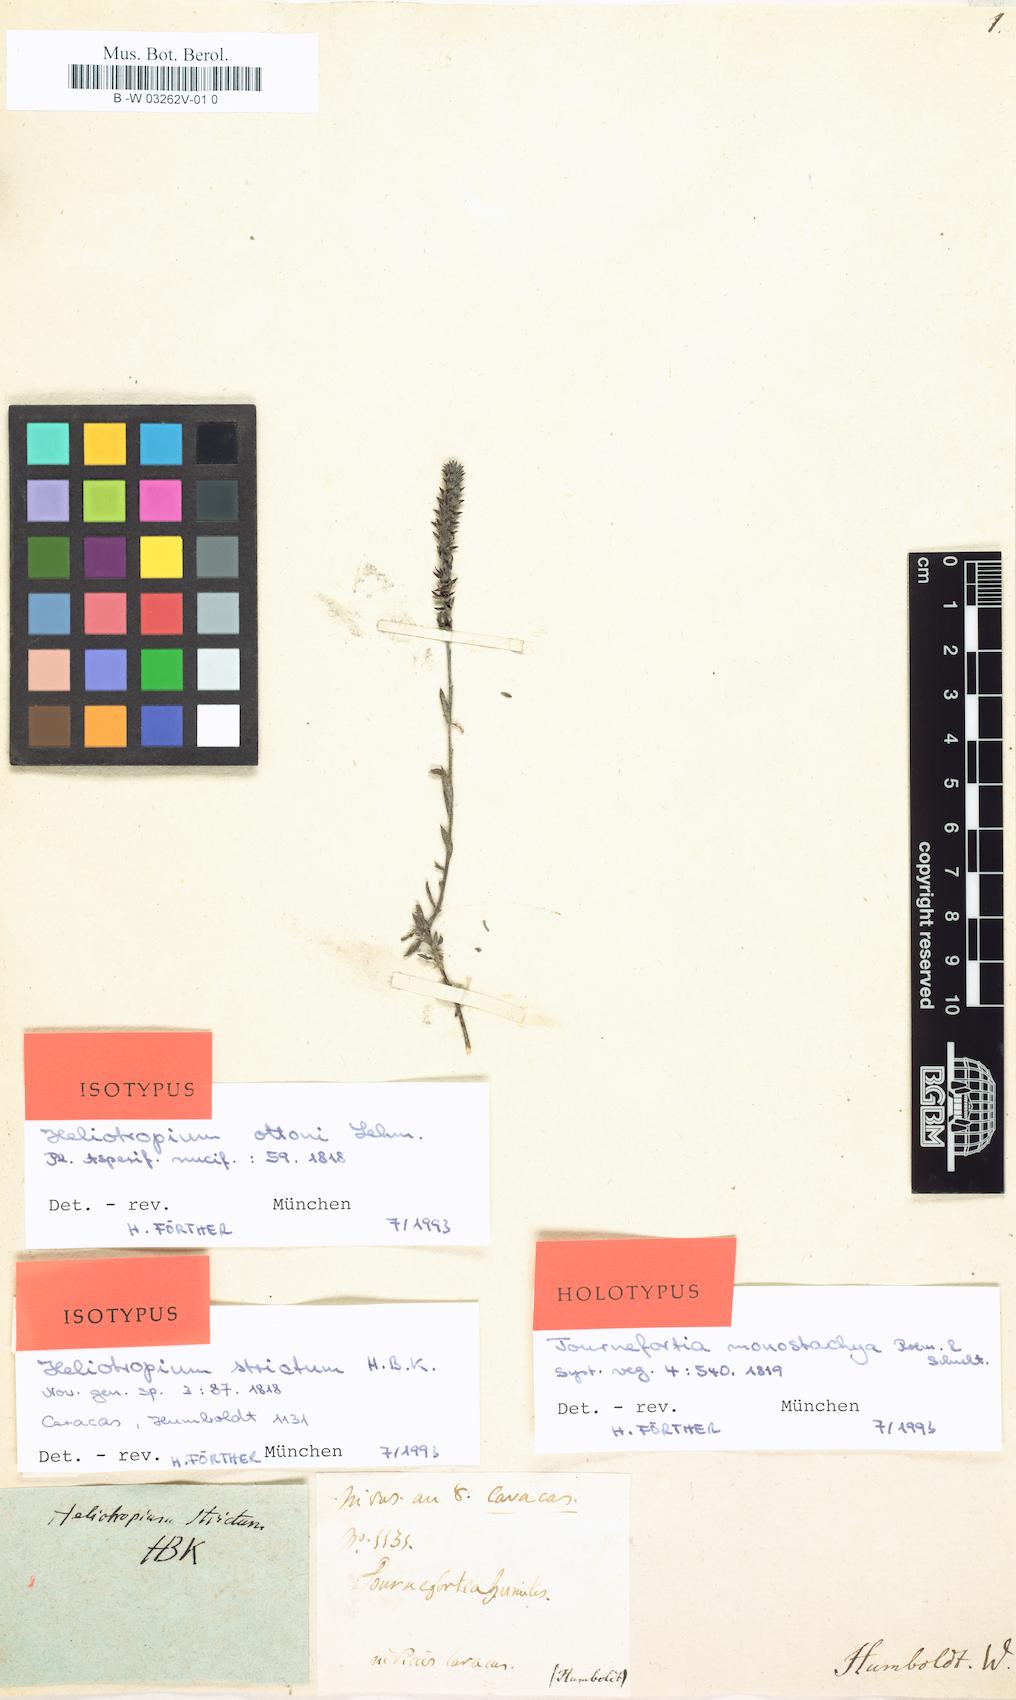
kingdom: Plantae
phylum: Tracheophyta
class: Magnoliopsida
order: Boraginales
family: Heliotropiaceae
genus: Heliotropium
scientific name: Heliotropium transalpinum
